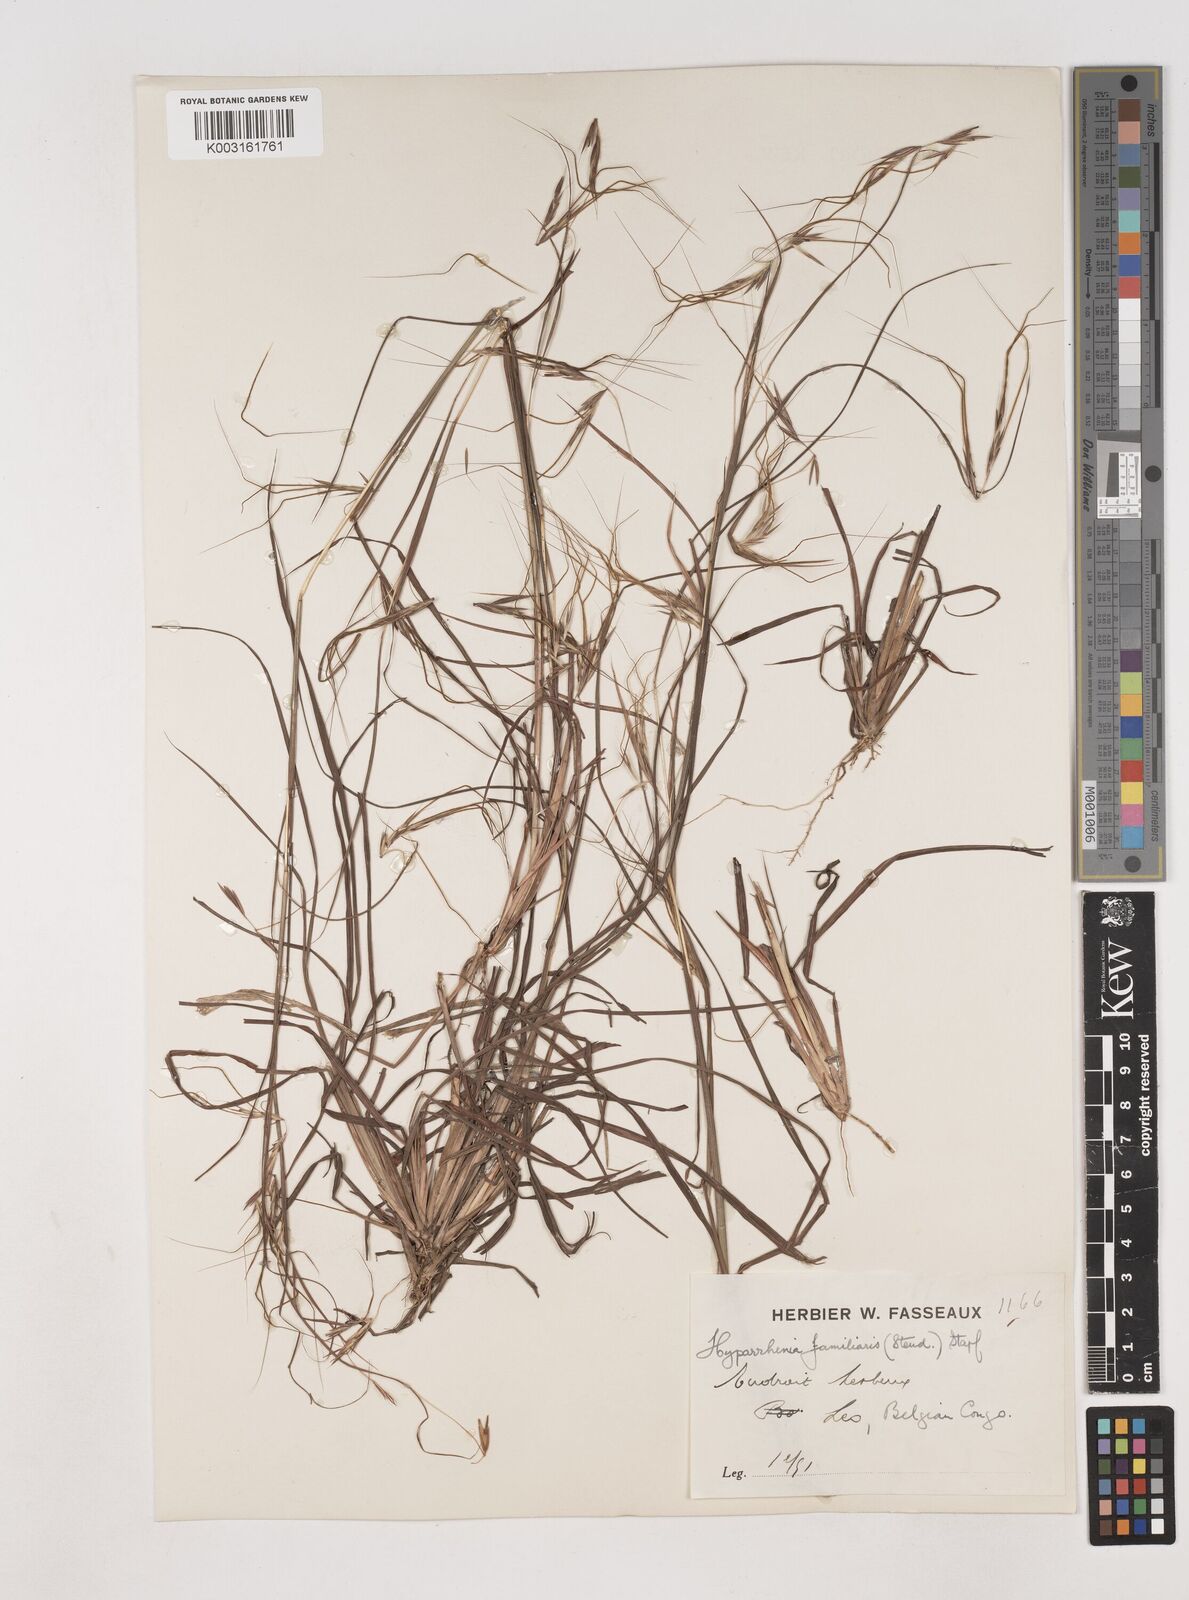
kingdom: Plantae
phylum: Tracheophyta
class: Liliopsida
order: Poales
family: Poaceae
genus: Hyparrhenia
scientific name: Hyparrhenia familiaris
